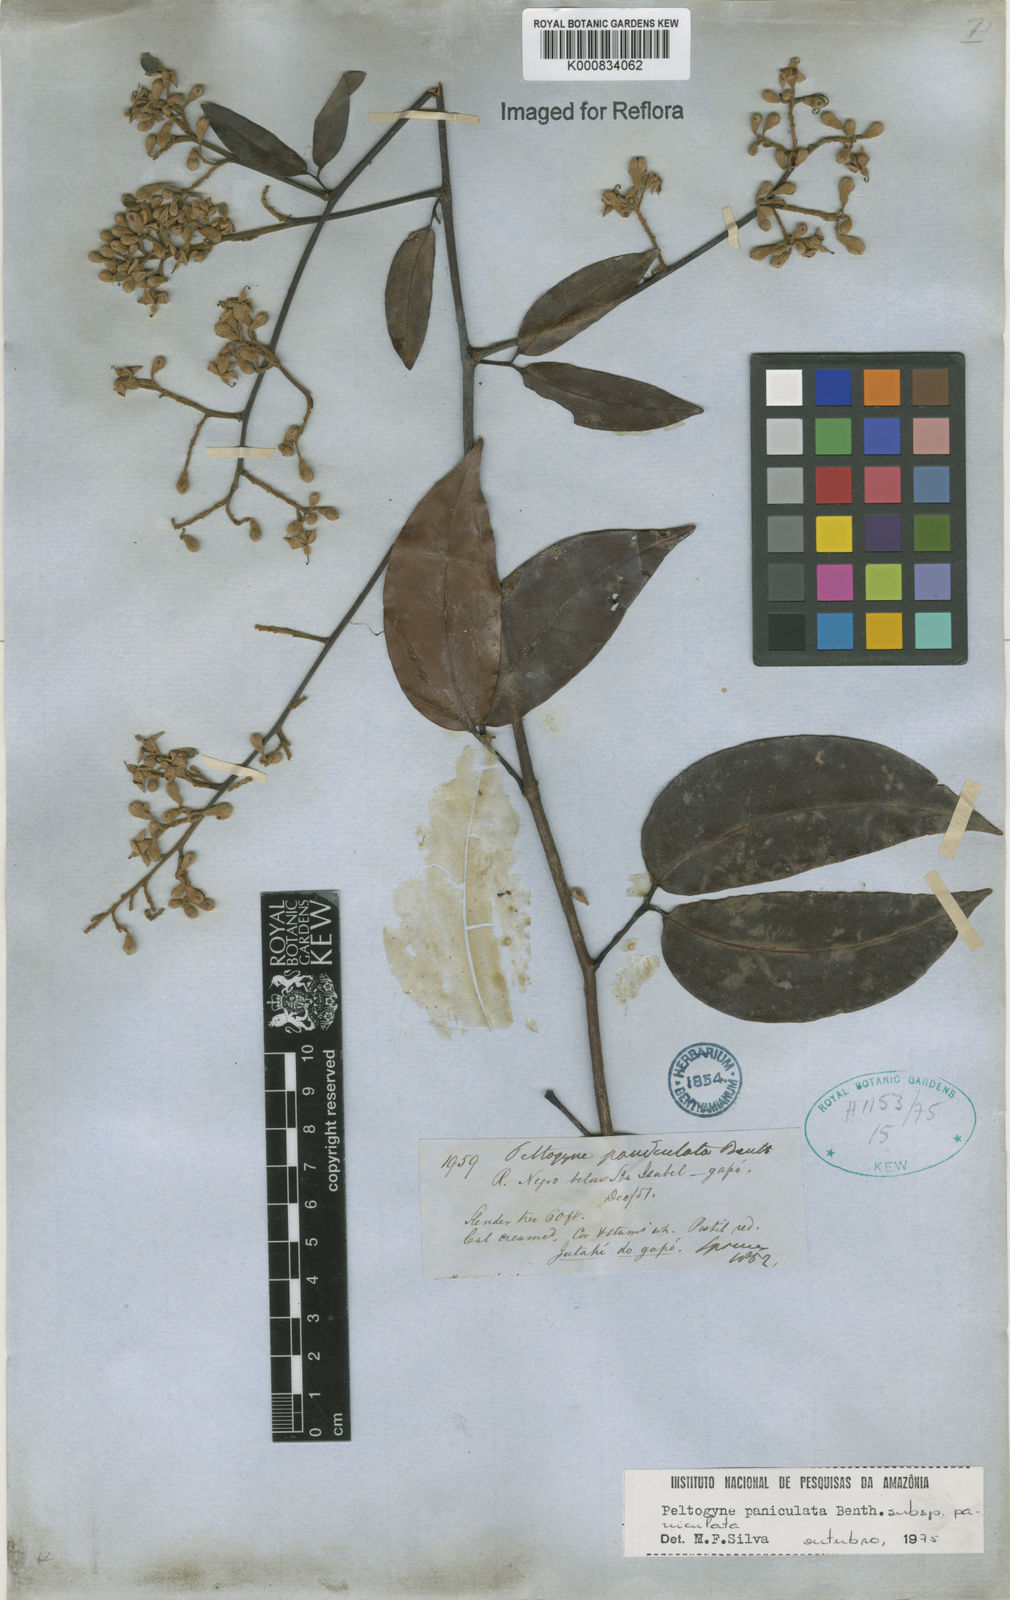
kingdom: Plantae
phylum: Tracheophyta
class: Magnoliopsida
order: Fabales
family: Fabaceae
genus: Peltogyne
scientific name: Peltogyne paniculata
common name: Purpleheart
